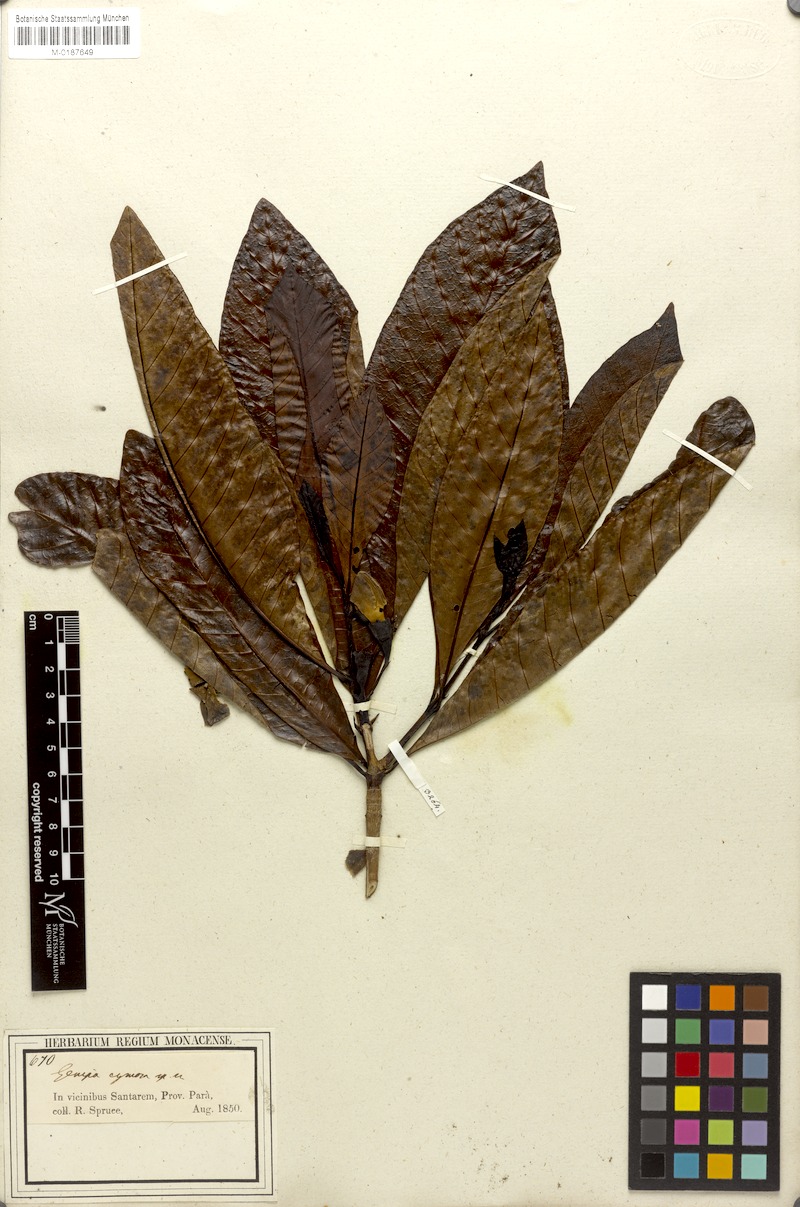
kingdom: Plantae
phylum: Tracheophyta
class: Magnoliopsida
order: Gentianales
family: Rubiaceae
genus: Genipa
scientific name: Genipa americana
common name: Genipap
